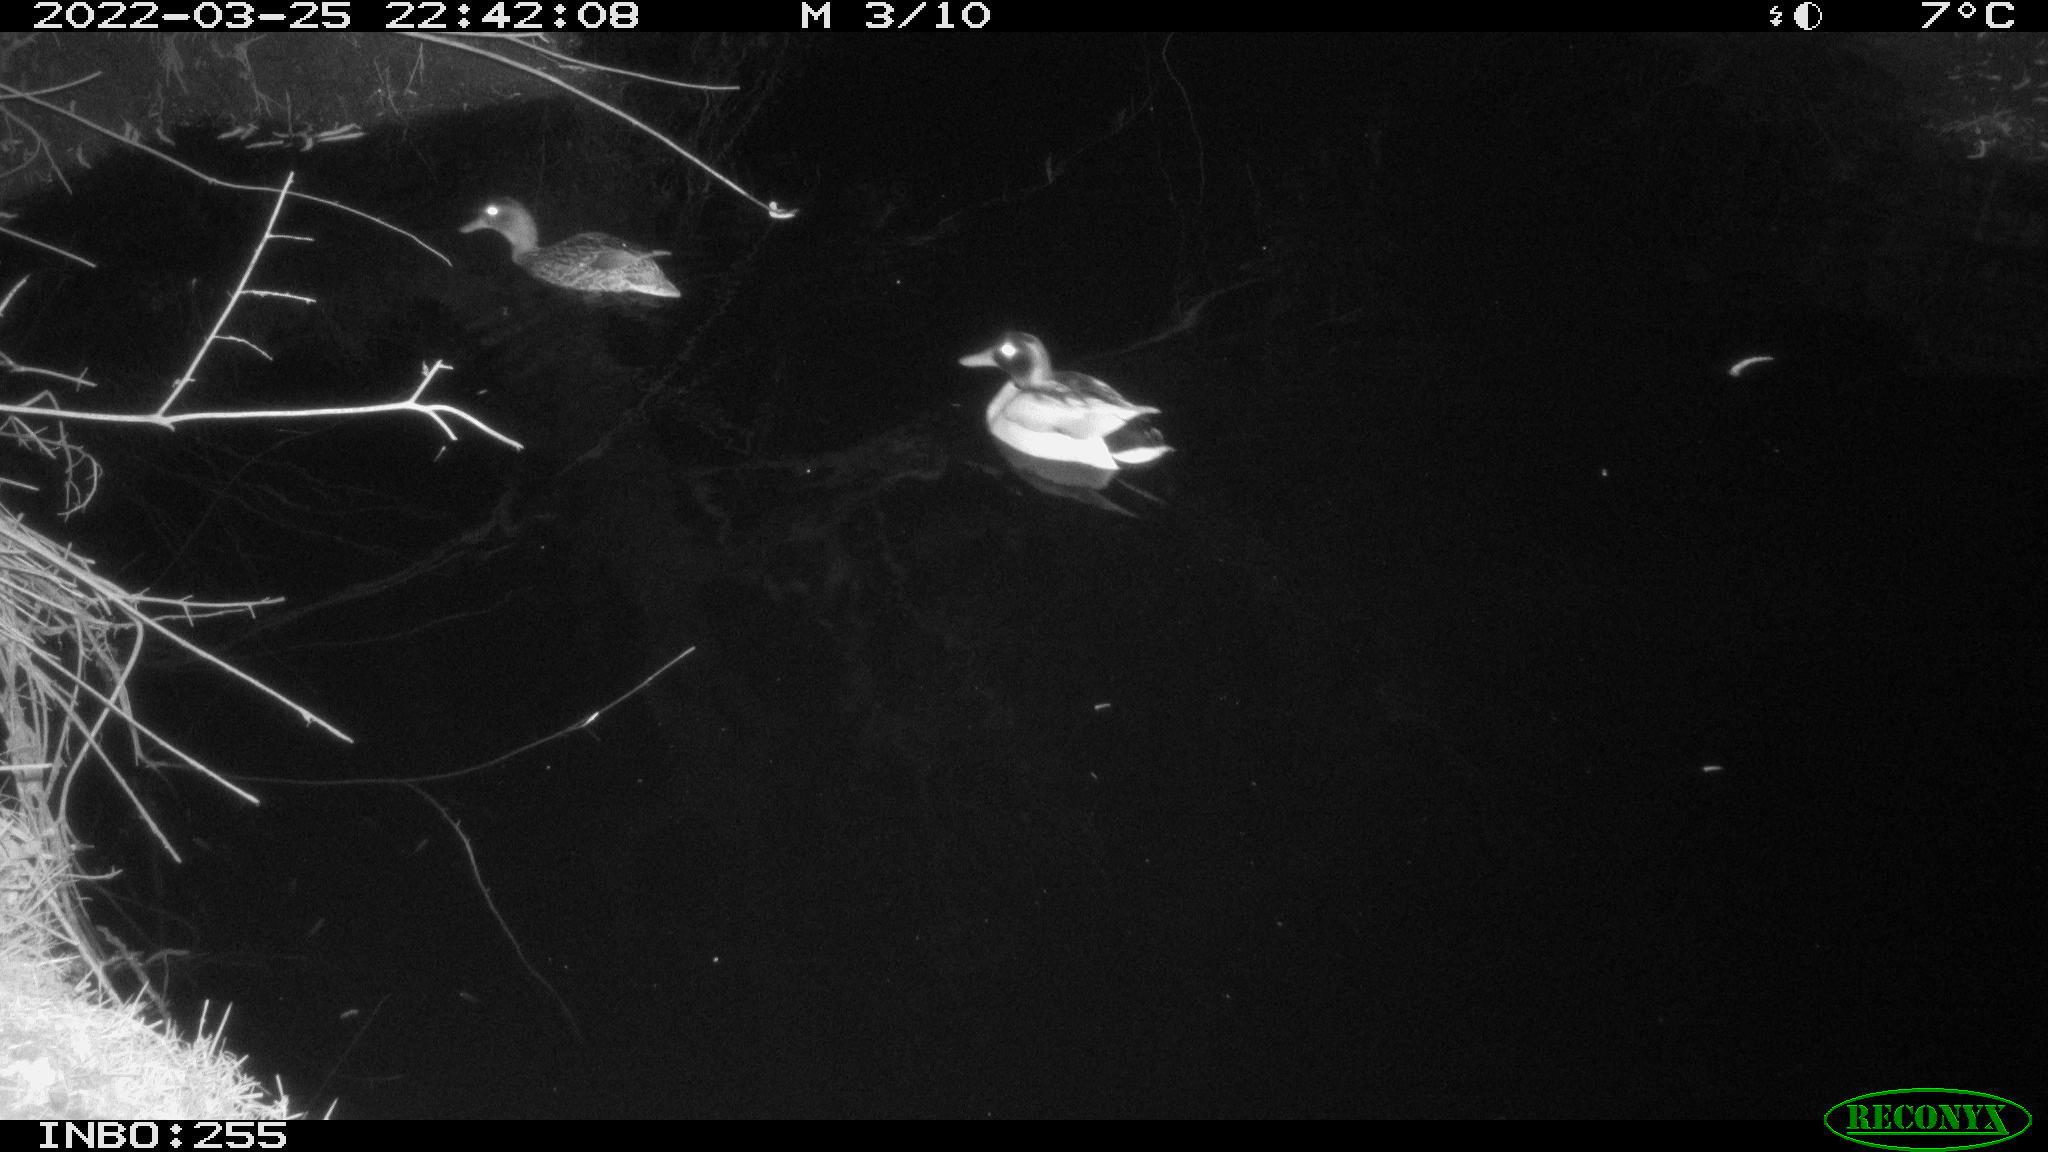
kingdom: Animalia
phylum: Chordata
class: Aves
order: Anseriformes
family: Anatidae
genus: Anas
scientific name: Anas platyrhynchos
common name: Mallard
